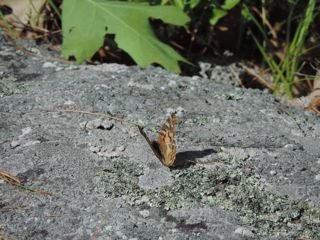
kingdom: Animalia
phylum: Arthropoda
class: Insecta
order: Lepidoptera
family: Nymphalidae
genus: Vanessa
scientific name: Vanessa virginiensis
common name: American Lady
